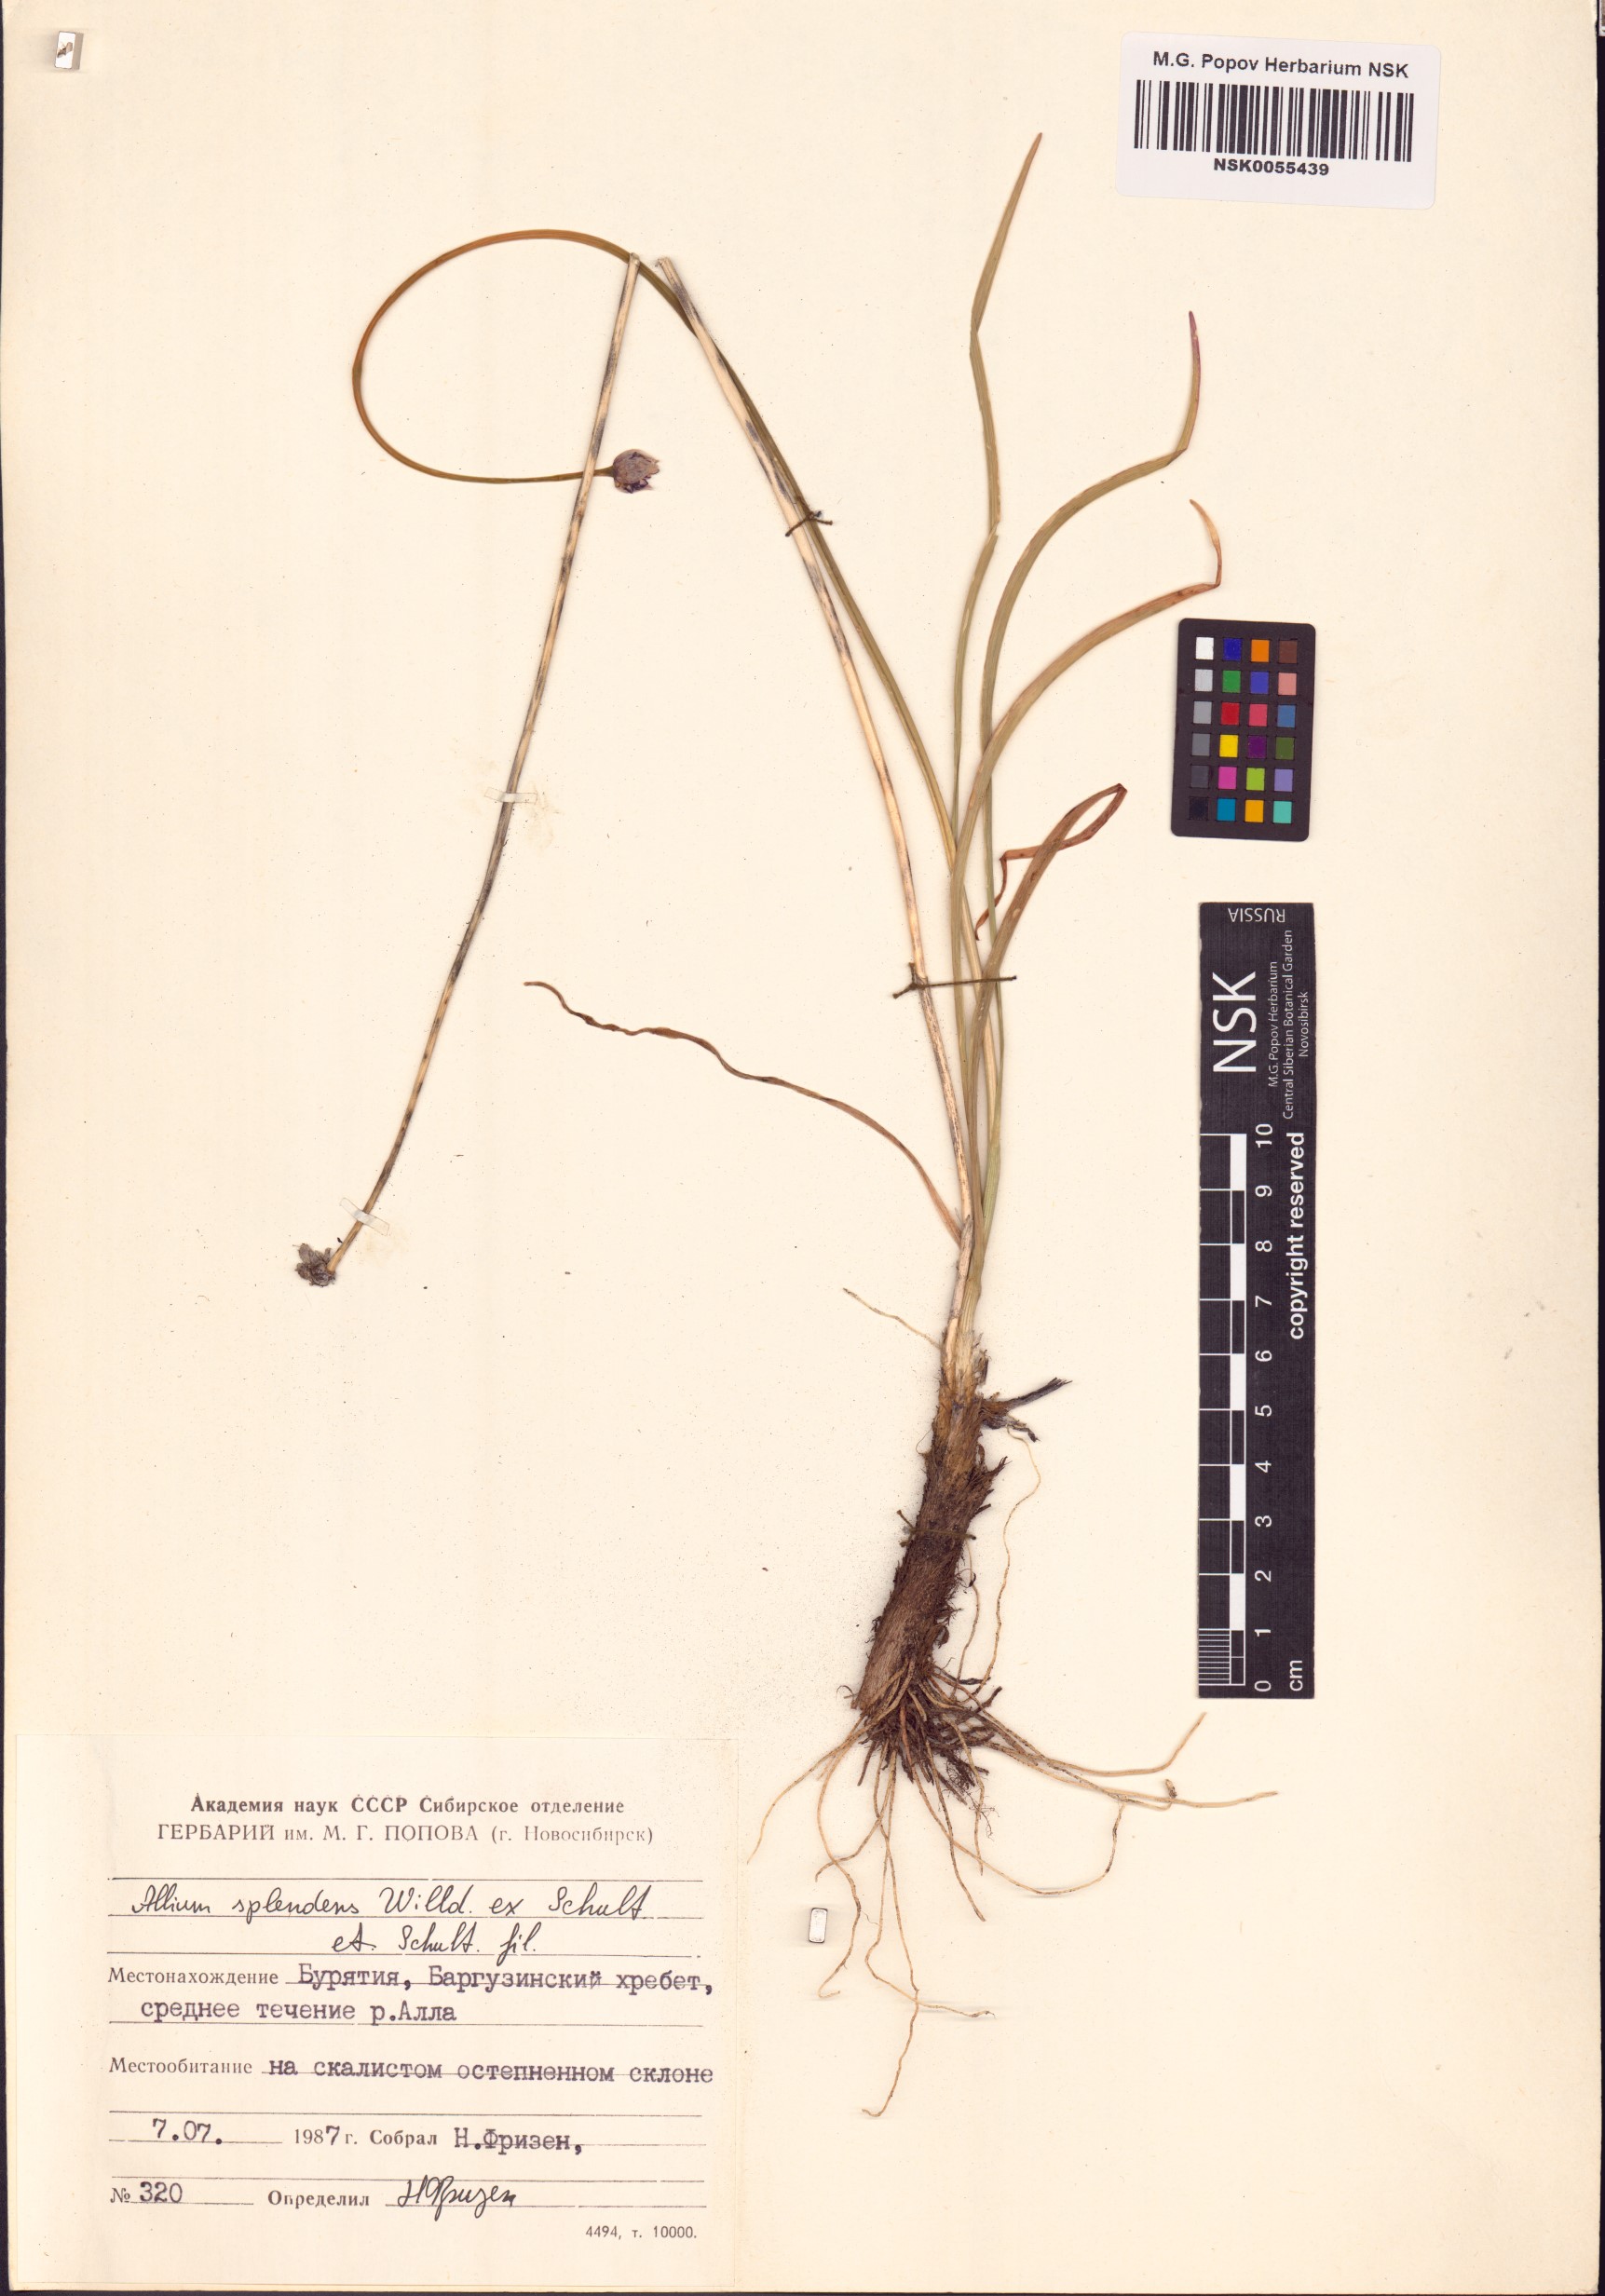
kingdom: Plantae
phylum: Tracheophyta
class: Liliopsida
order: Asparagales
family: Amaryllidaceae
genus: Allium
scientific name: Allium splendens
